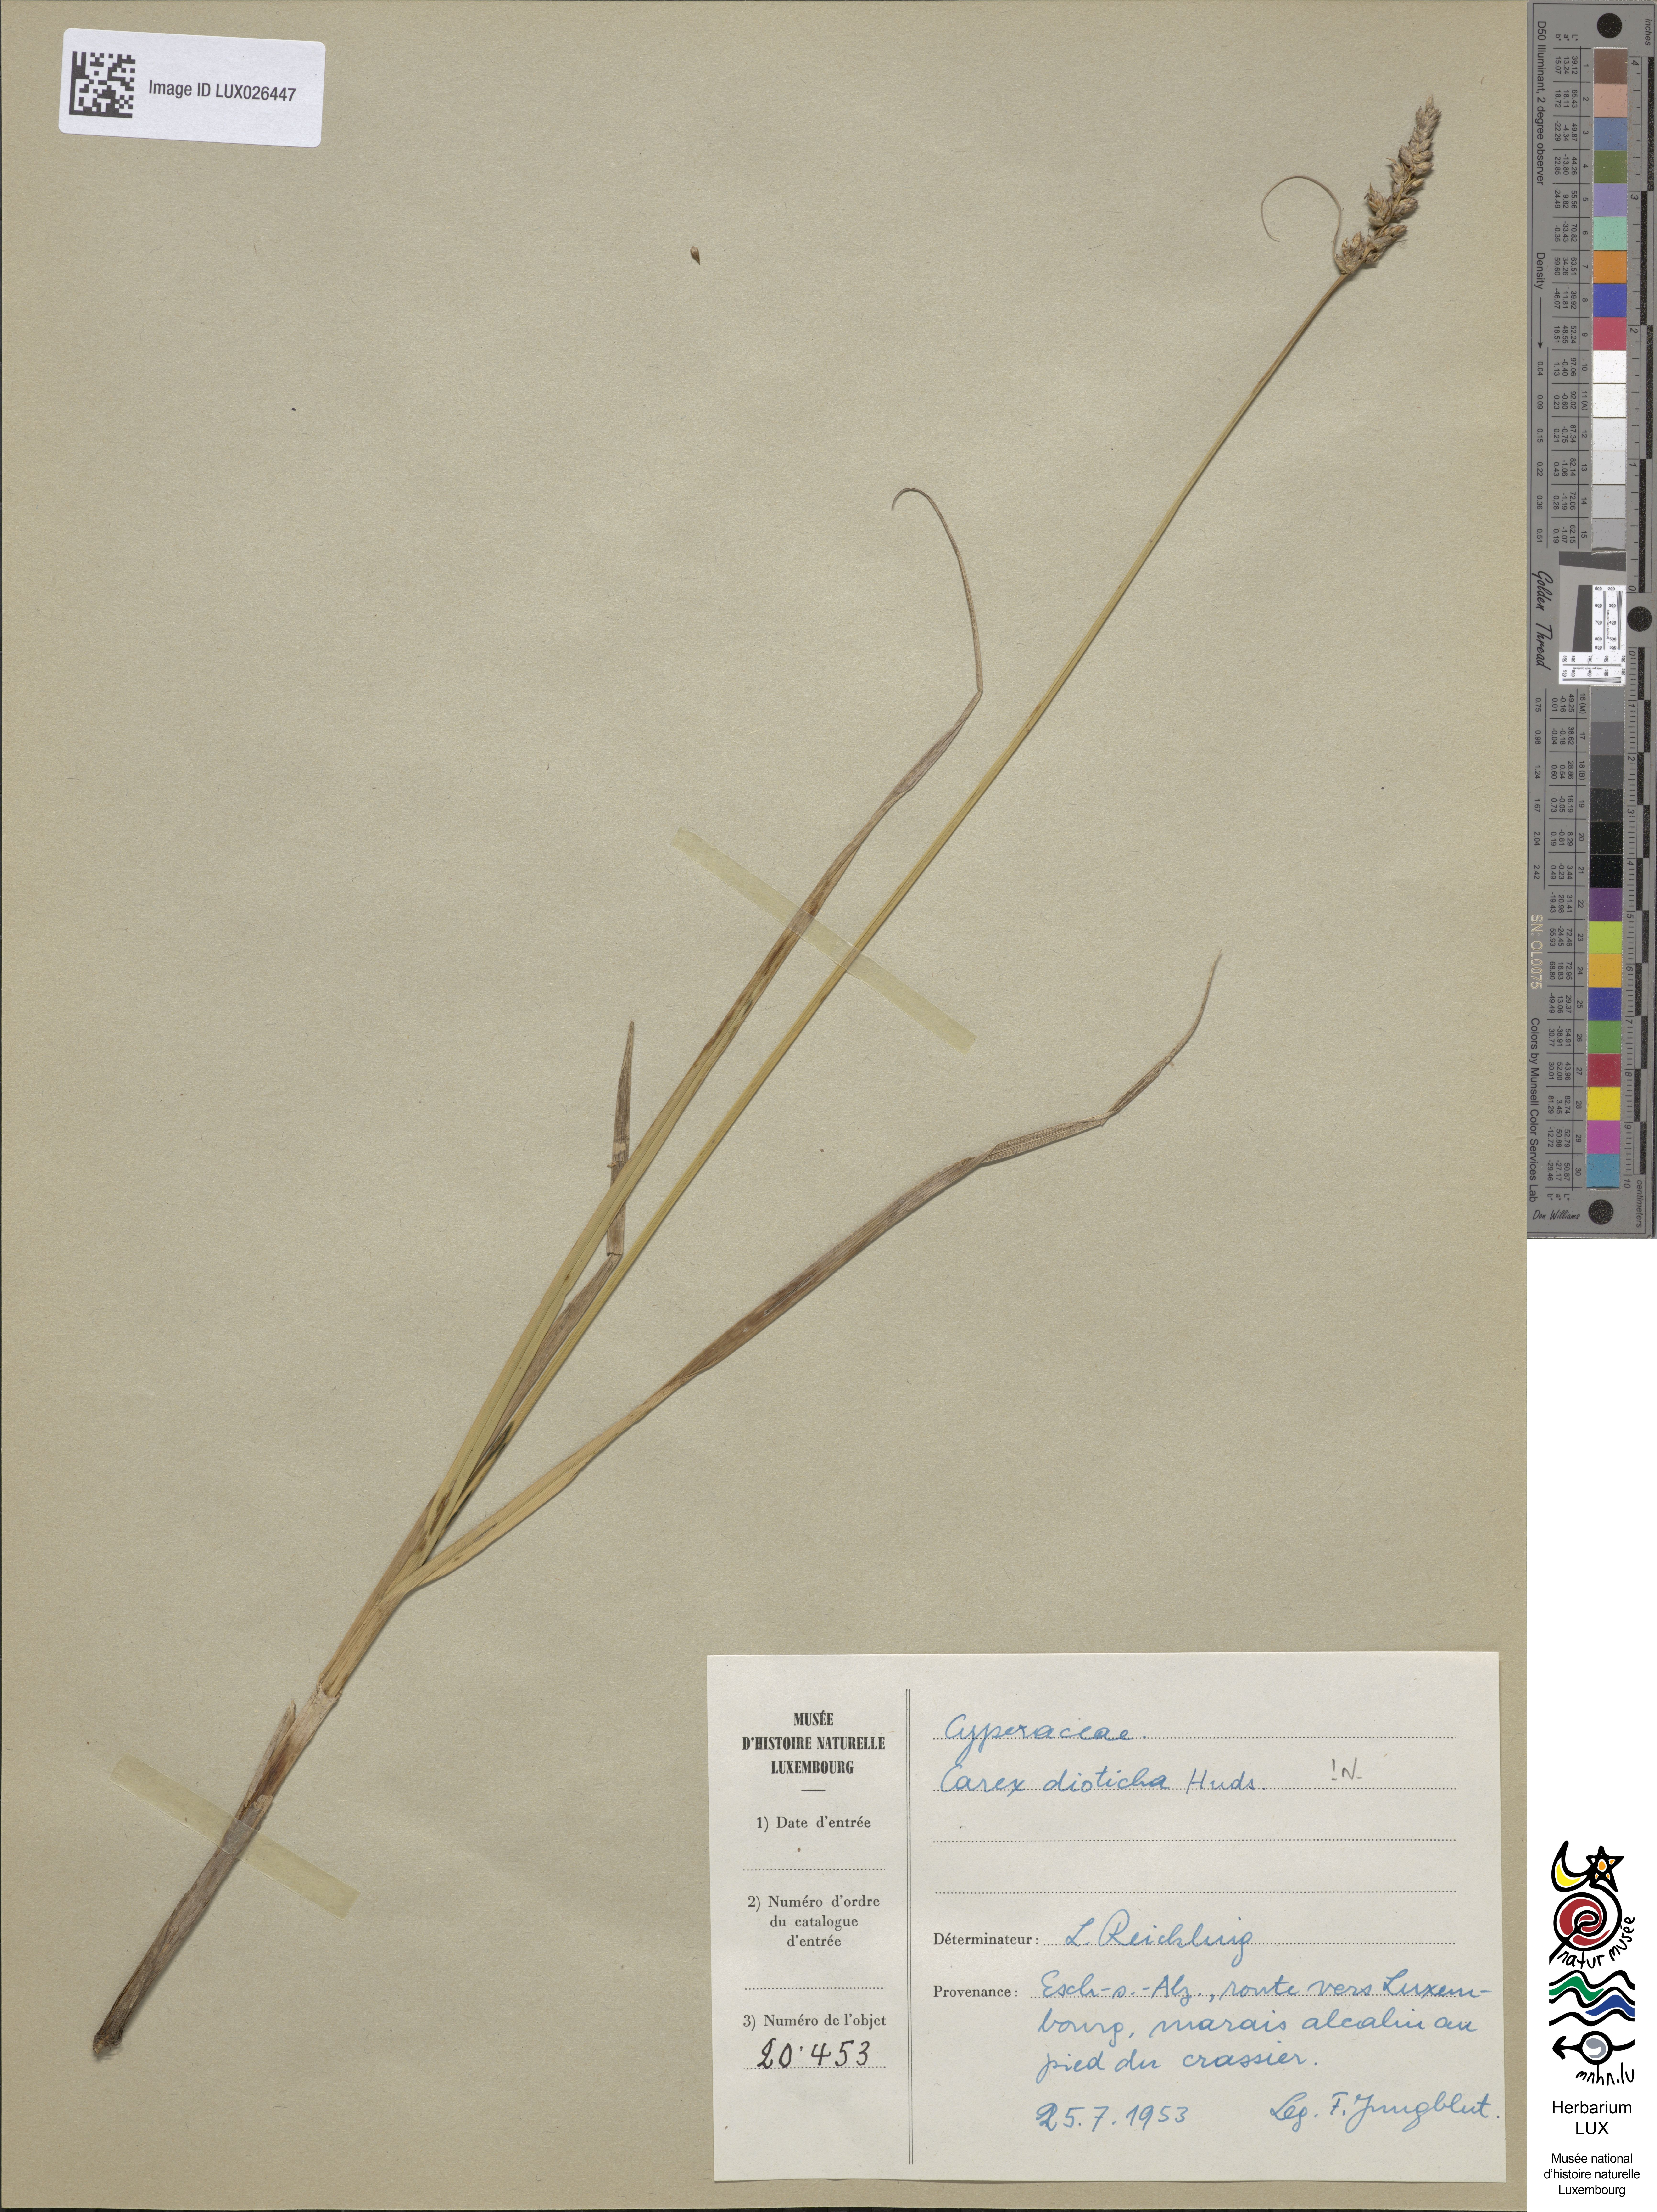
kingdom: Plantae
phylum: Tracheophyta
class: Liliopsida
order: Poales
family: Cyperaceae
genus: Carex
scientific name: Carex disticha
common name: Brown sedge
